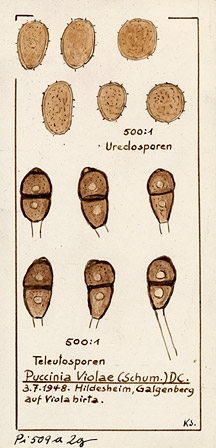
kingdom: Plantae
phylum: Tracheophyta
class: Magnoliopsida
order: Malpighiales
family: Violaceae
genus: Viola
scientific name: Viola hirta
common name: Hairy violet
